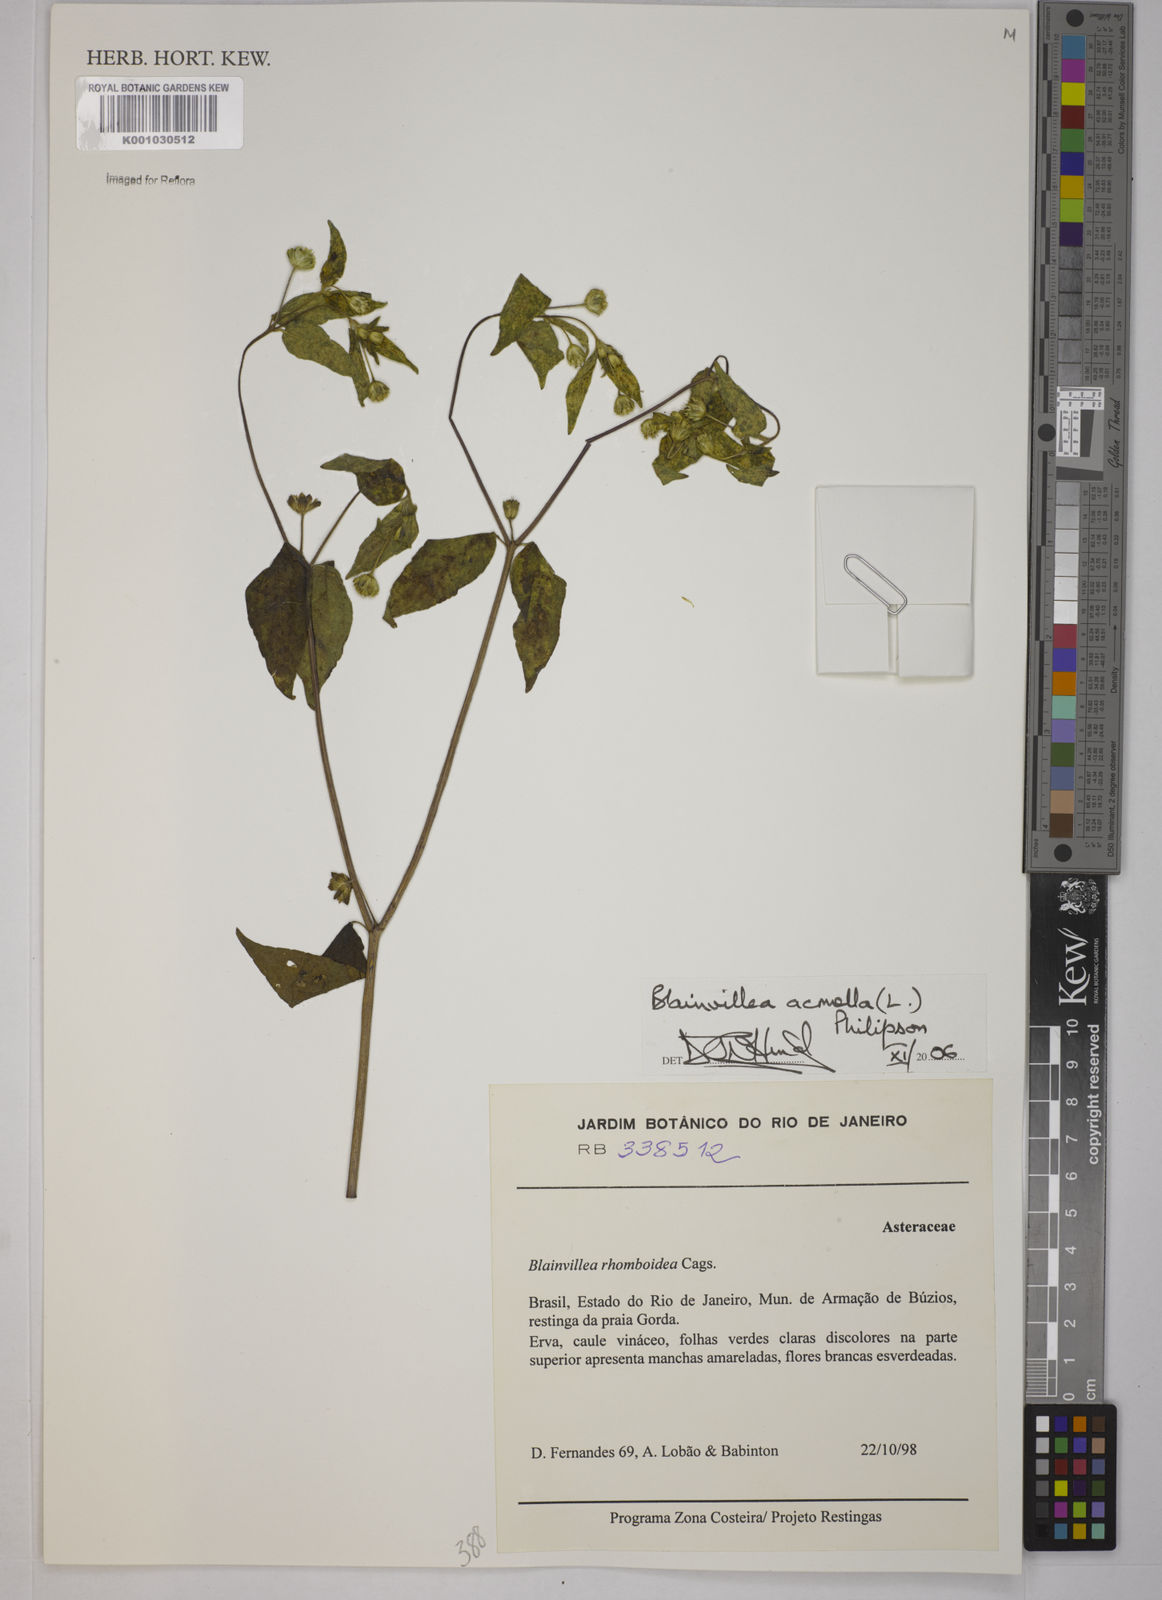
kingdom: Plantae
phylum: Tracheophyta
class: Magnoliopsida
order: Asterales
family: Asteraceae
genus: Blainvillea
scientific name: Blainvillea acmella
